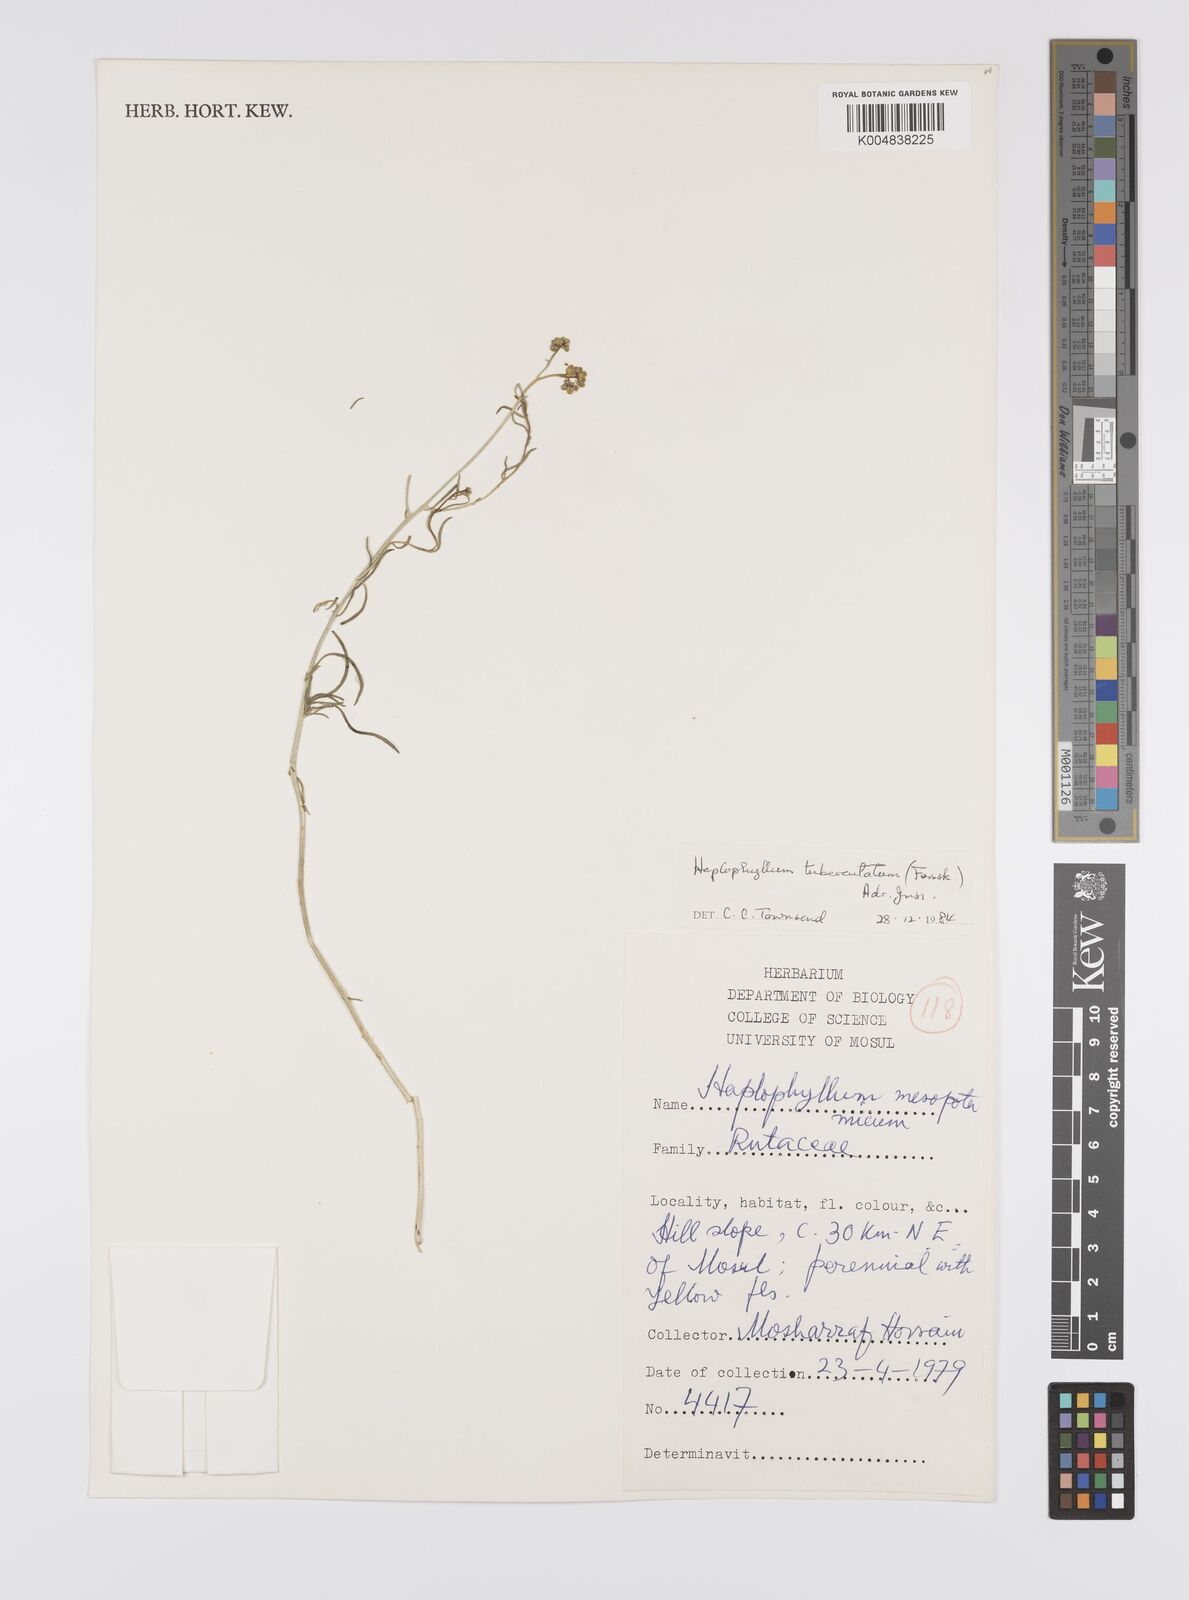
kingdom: Plantae
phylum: Tracheophyta
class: Magnoliopsida
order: Sapindales
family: Rutaceae
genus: Haplophyllum
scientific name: Haplophyllum tuberculatum
